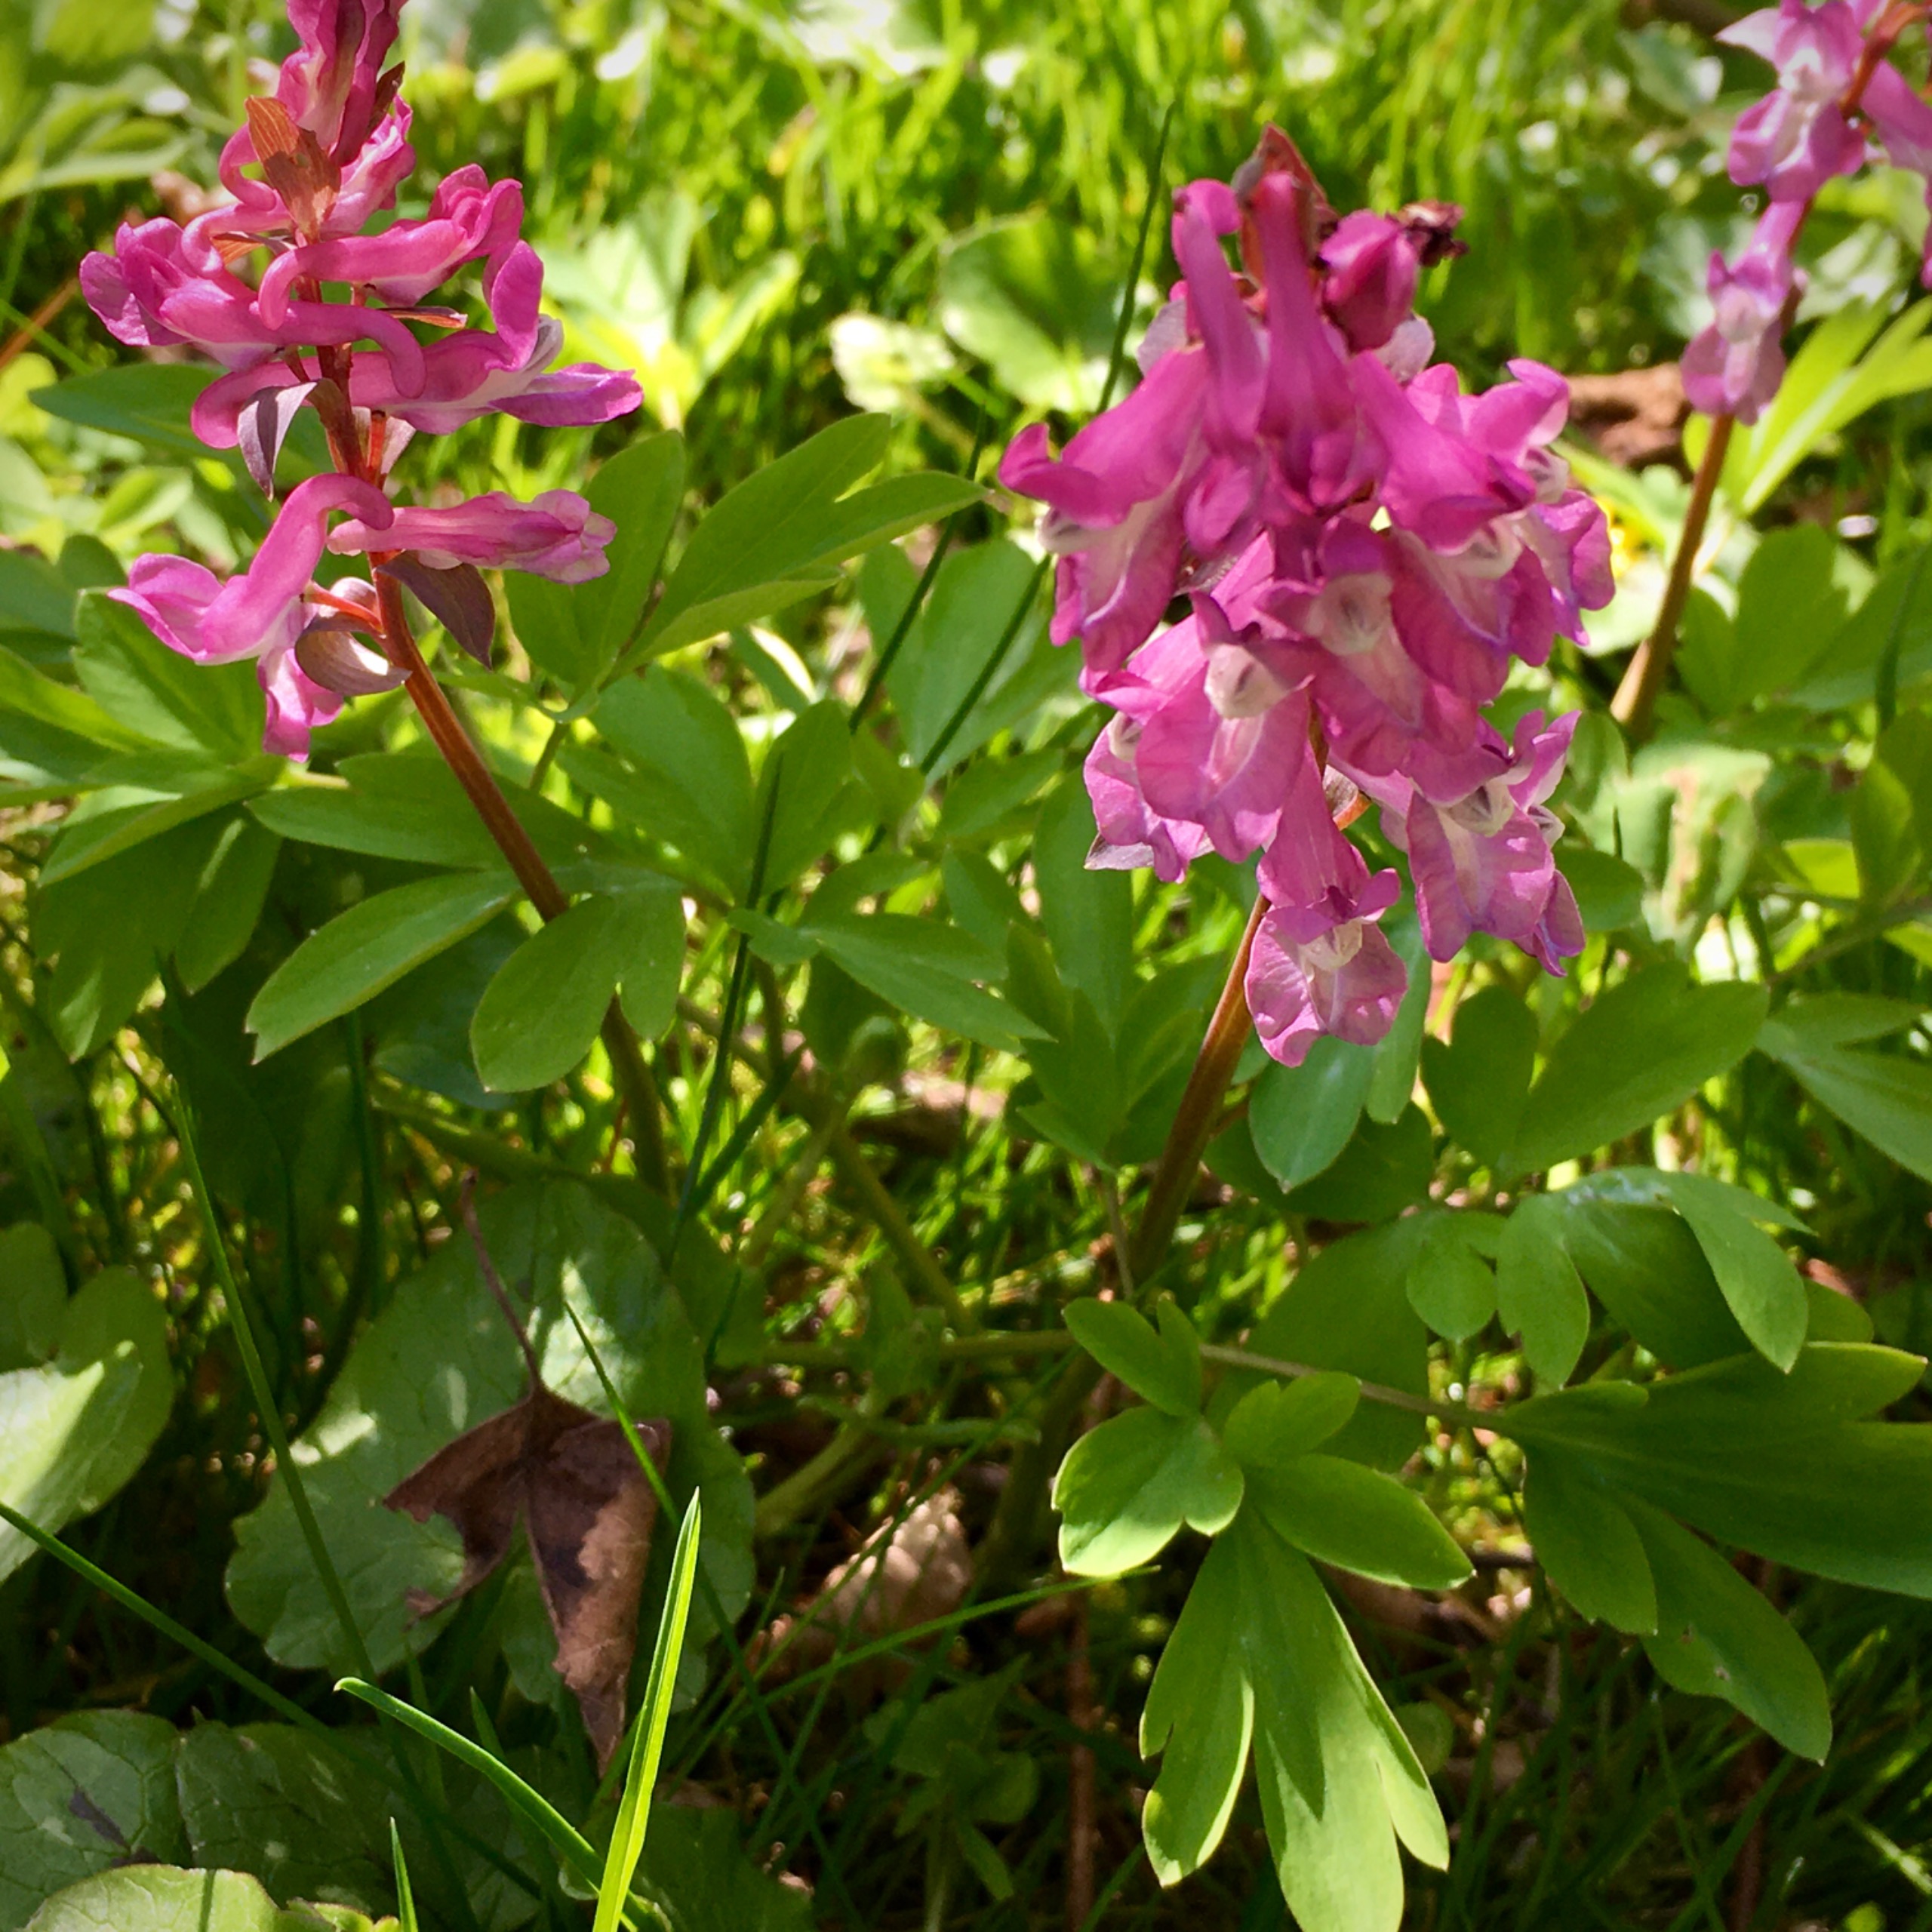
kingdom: Plantae
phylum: Tracheophyta
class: Magnoliopsida
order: Ranunculales
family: Papaveraceae
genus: Corydalis
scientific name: Corydalis cava
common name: Hulrodet lærkespore
